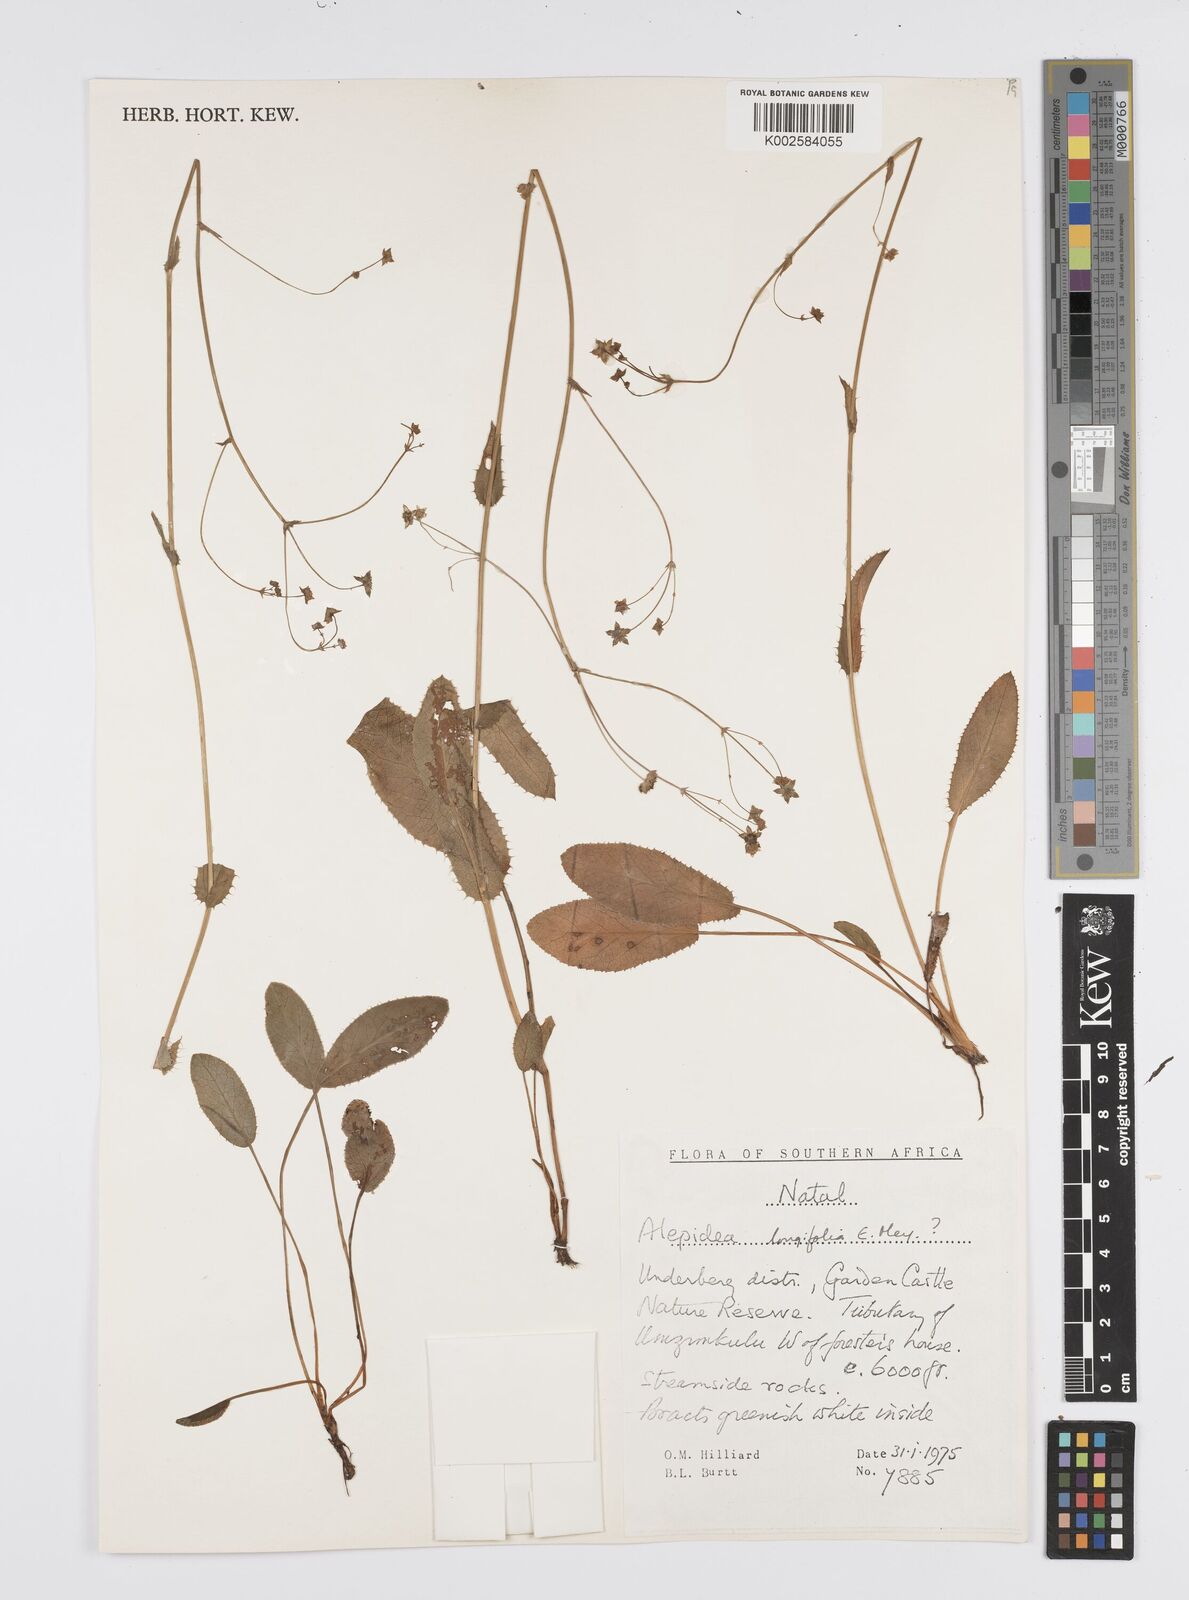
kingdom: Plantae
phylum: Tracheophyta
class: Magnoliopsida
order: Apiales
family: Apiaceae
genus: Alepidea
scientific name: Alepidea woodii
